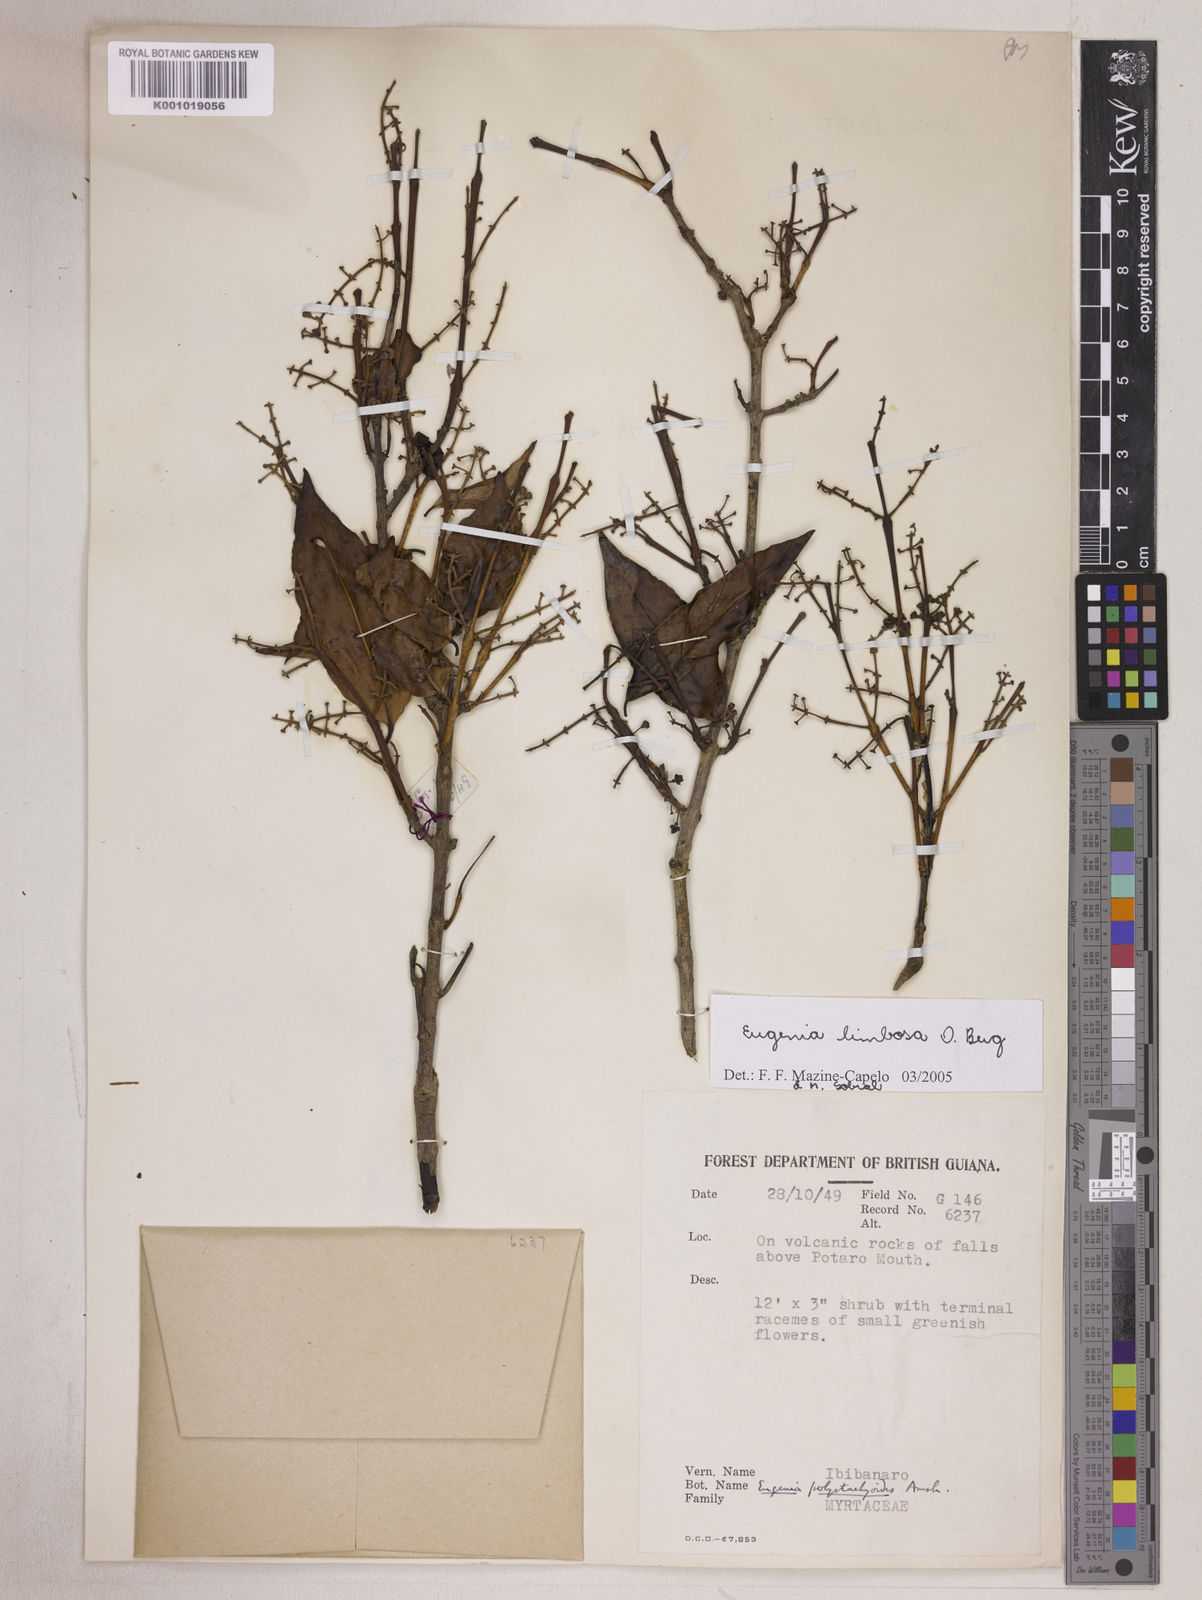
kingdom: Plantae
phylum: Tracheophyta
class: Magnoliopsida
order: Myrtales
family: Myrtaceae
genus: Eugenia
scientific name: Eugenia limbosa
